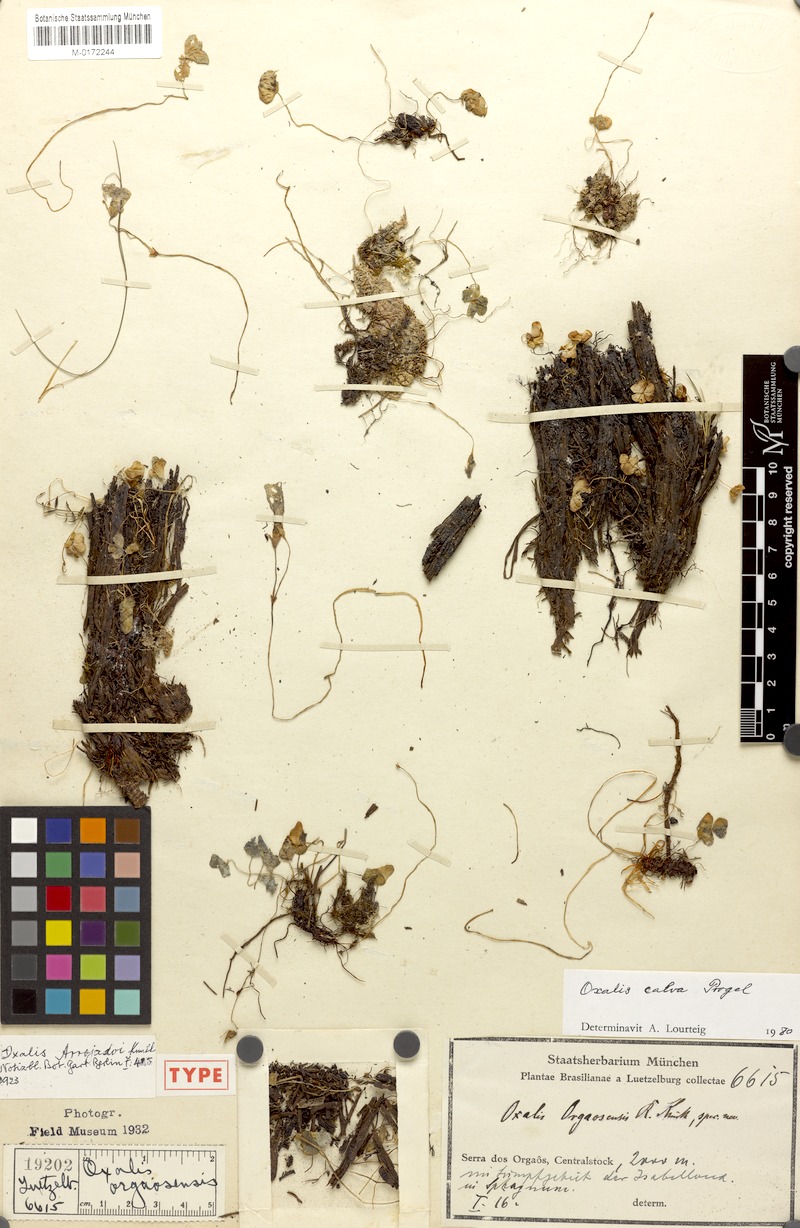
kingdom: Plantae
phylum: Tracheophyta
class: Magnoliopsida
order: Oxalidales
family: Oxalidaceae
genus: Oxalis
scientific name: Oxalis calva
